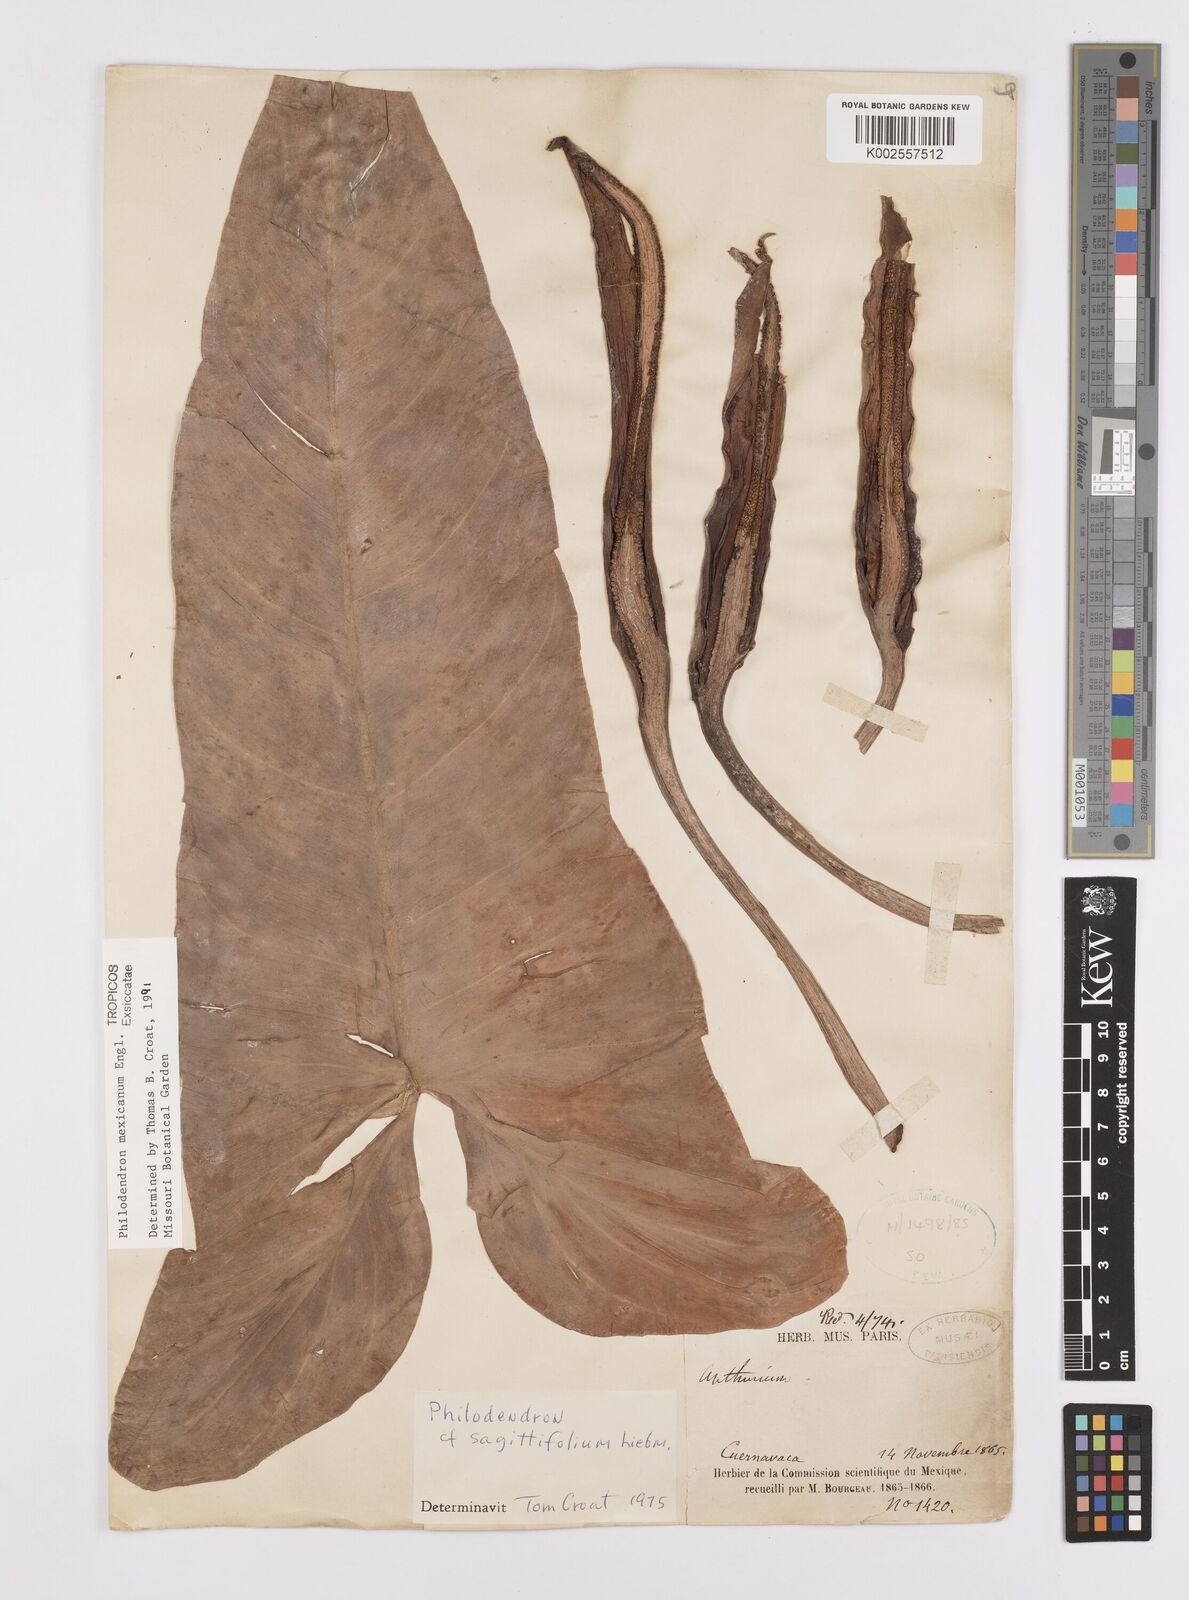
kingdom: Plantae
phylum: Tracheophyta
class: Liliopsida
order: Alismatales
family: Araceae
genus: Philodendron
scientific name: Philodendron mexicanum
